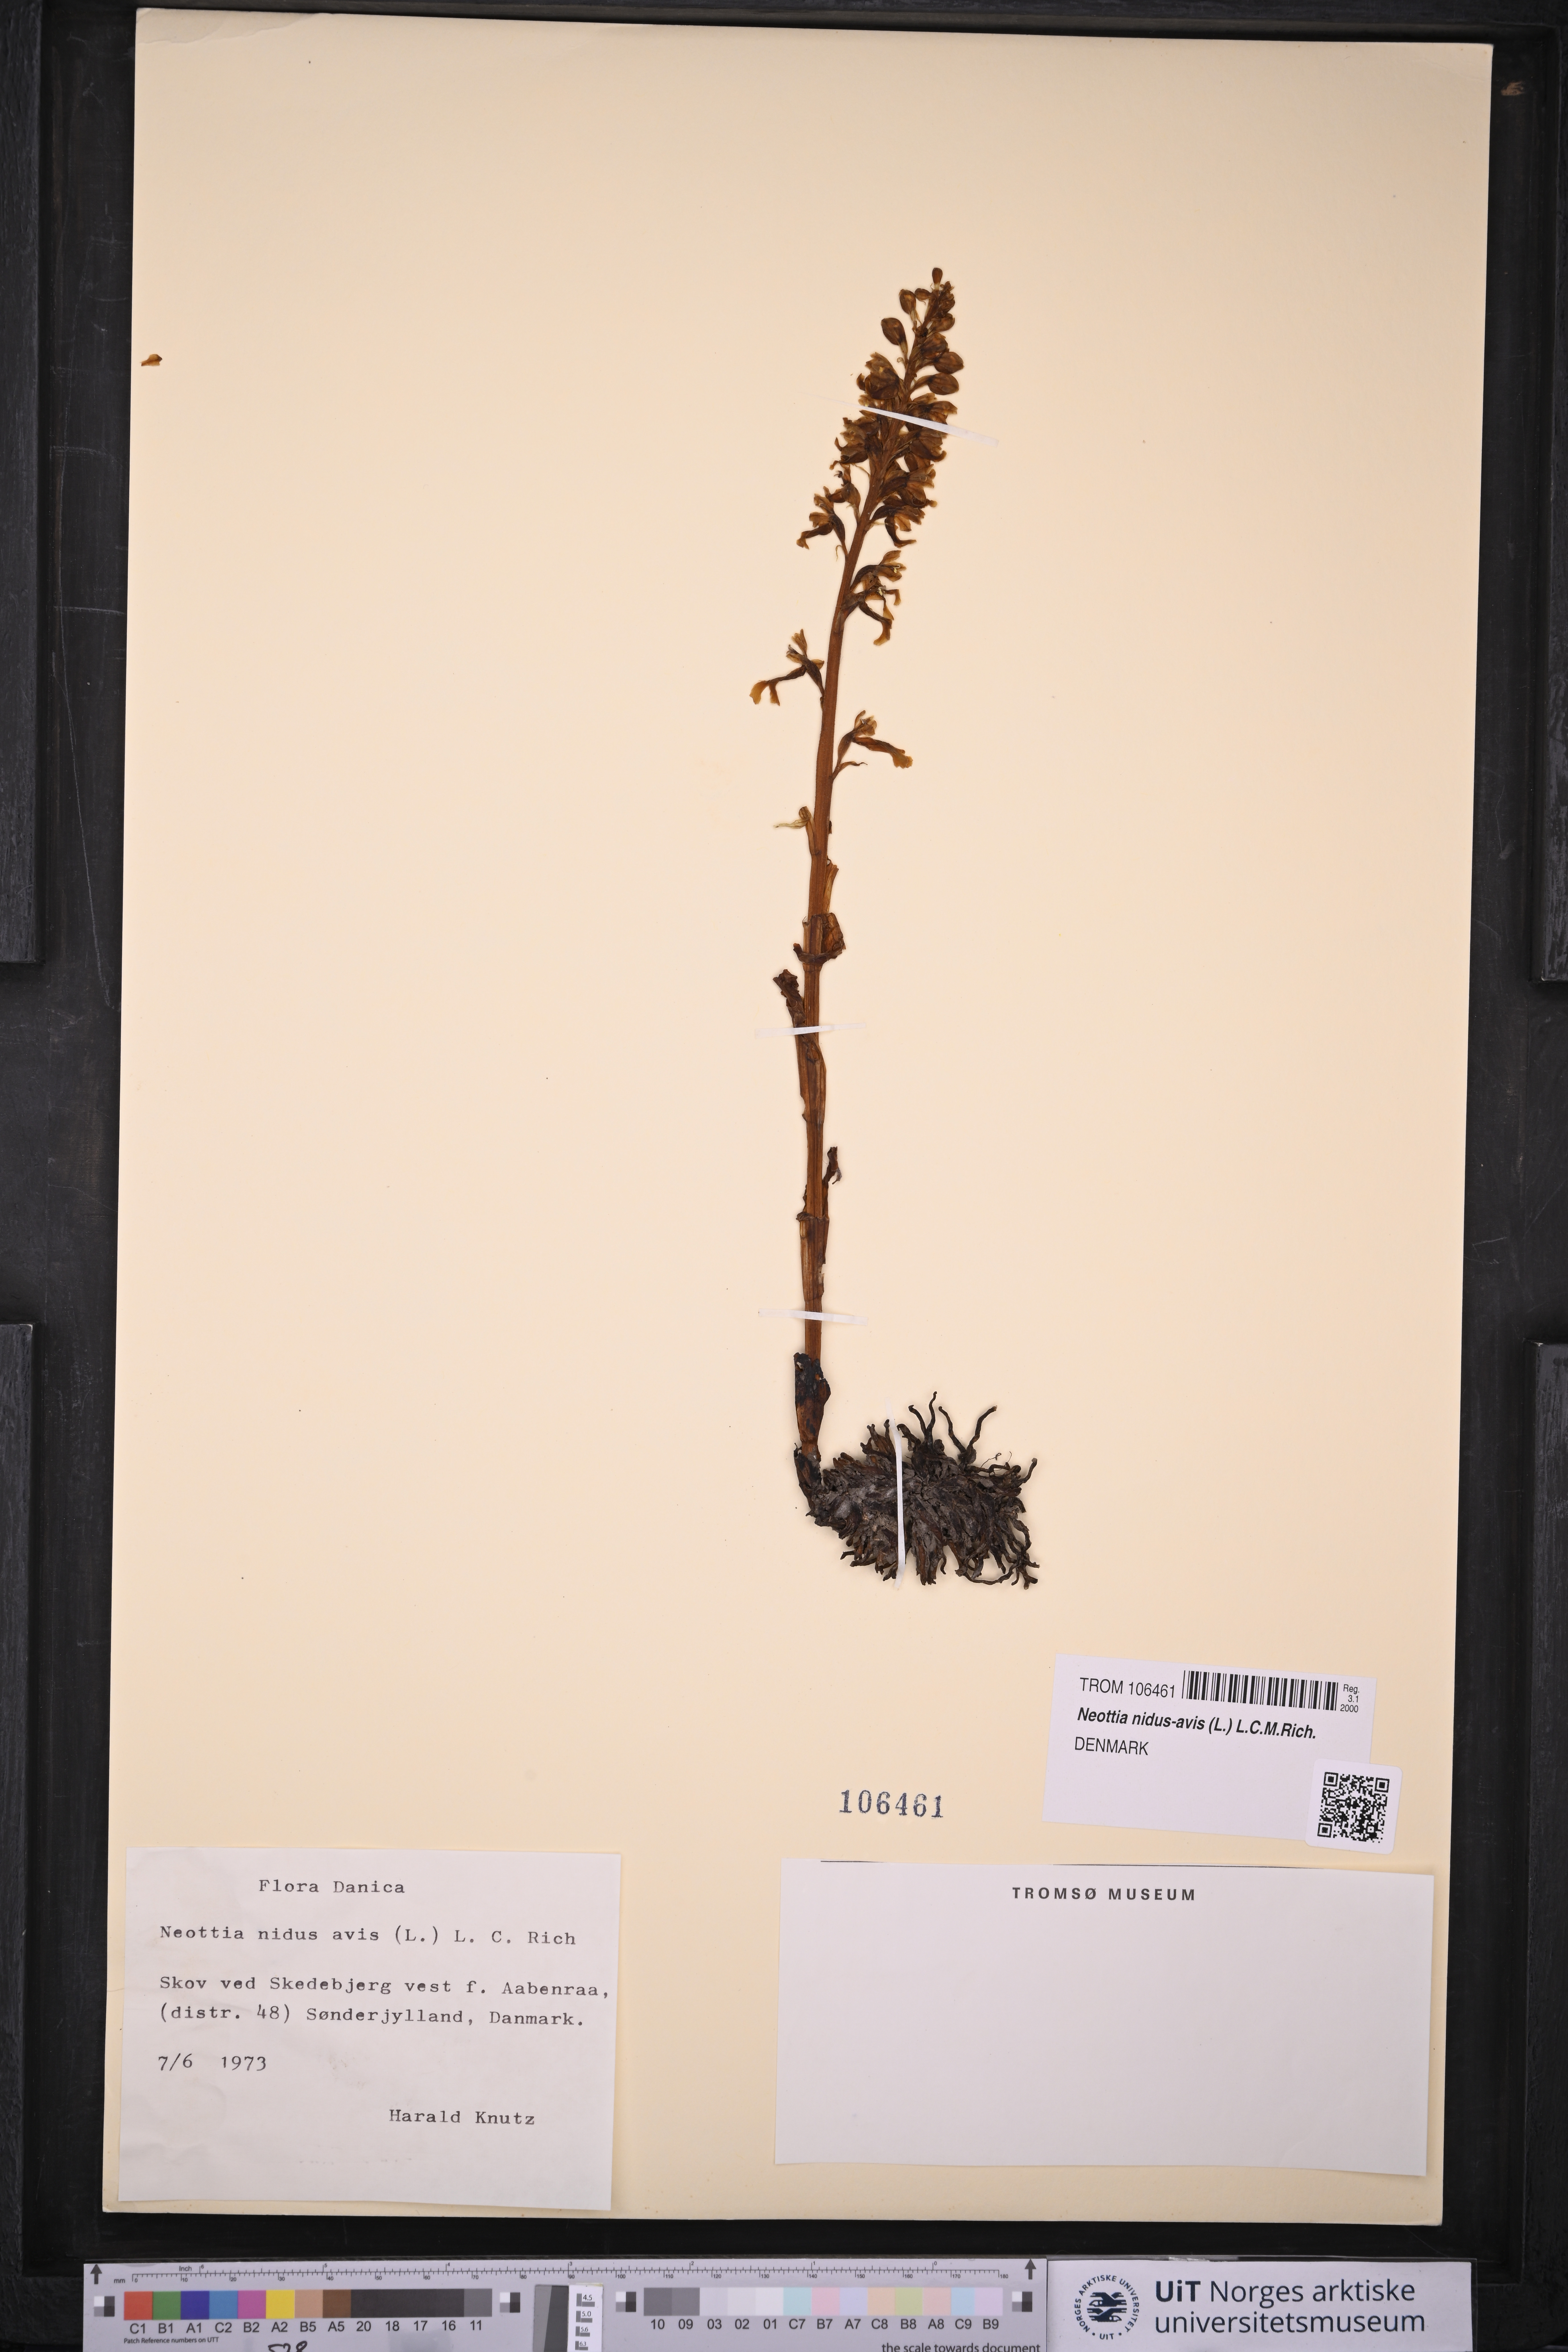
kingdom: Plantae
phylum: Tracheophyta
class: Liliopsida
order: Asparagales
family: Orchidaceae
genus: Neottia
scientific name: Neottia nidus-avis
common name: Bird's-nest orchid
